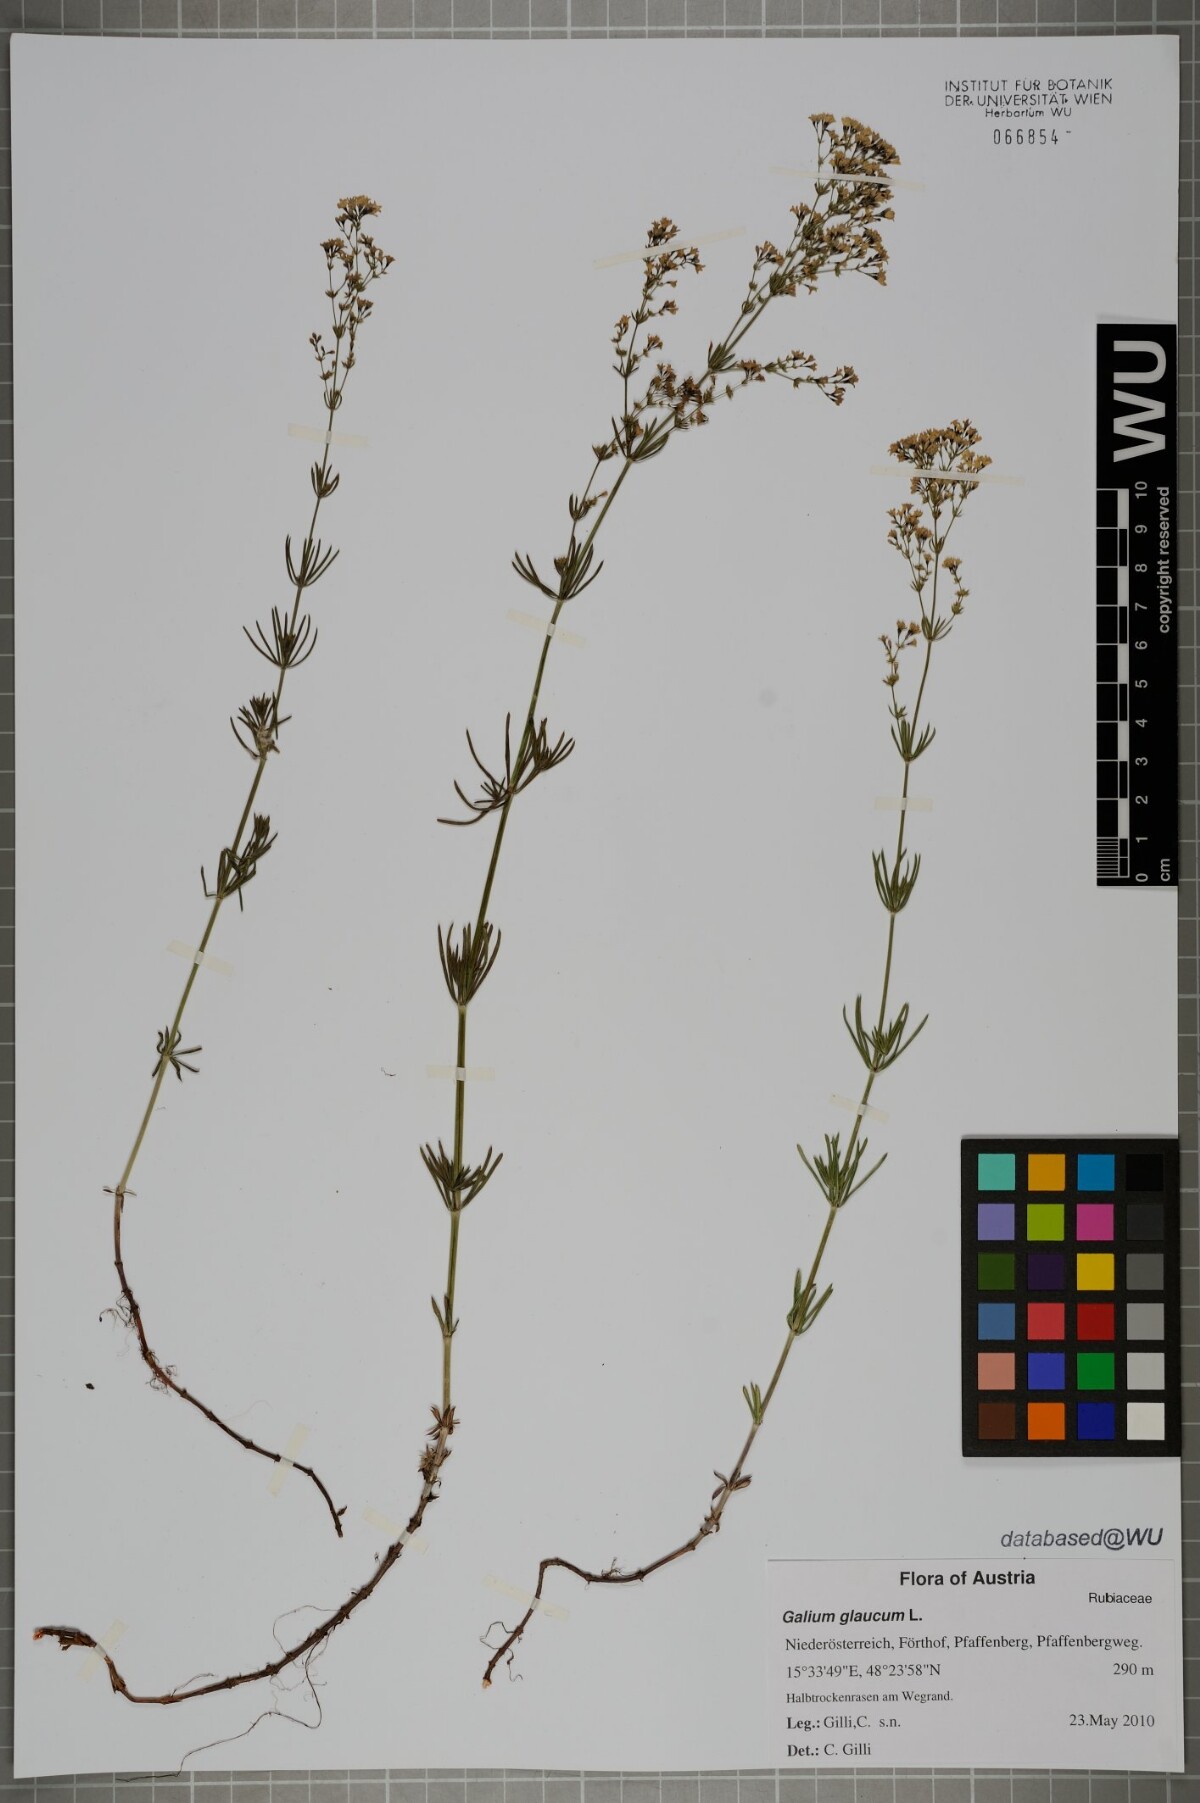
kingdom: Plantae
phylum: Tracheophyta
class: Magnoliopsida
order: Gentianales
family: Rubiaceae
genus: Galium
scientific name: Galium glaucum
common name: Waxy bedstraw
